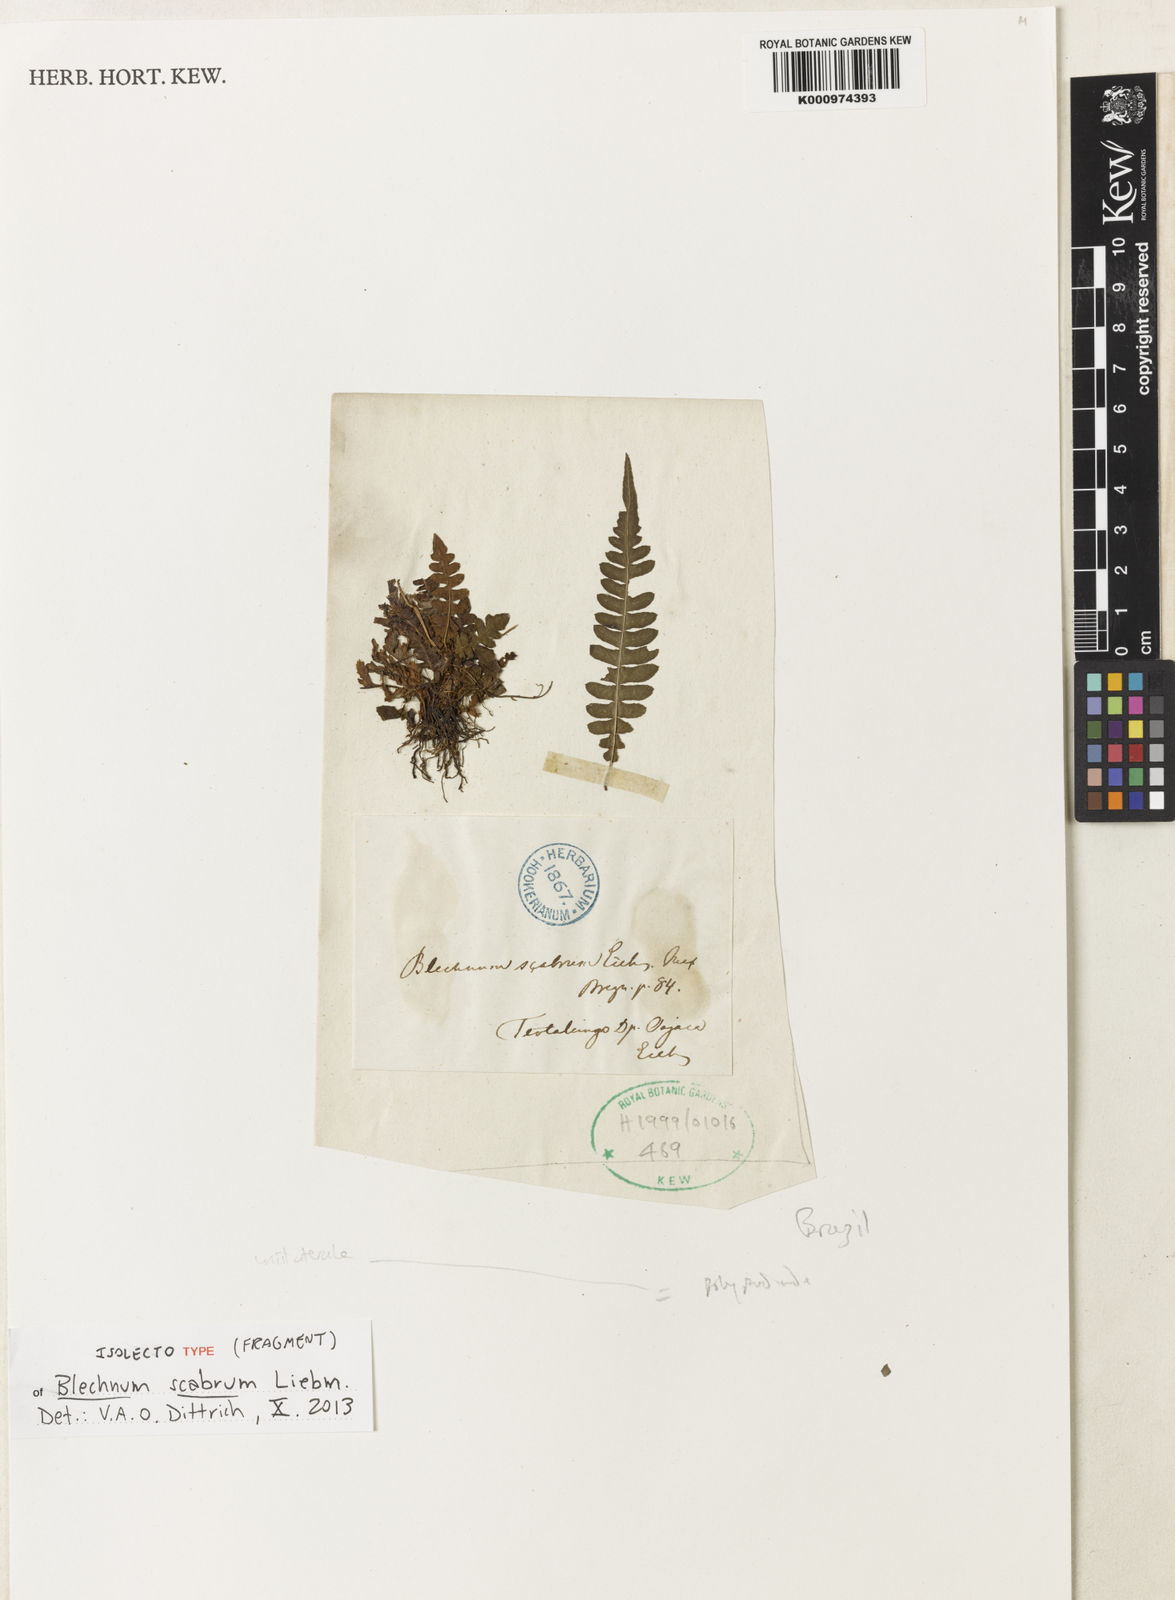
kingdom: Plantae
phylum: Tracheophyta
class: Polypodiopsida
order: Polypodiales
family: Blechnaceae
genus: Blechnum
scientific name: Blechnum polypodioides
